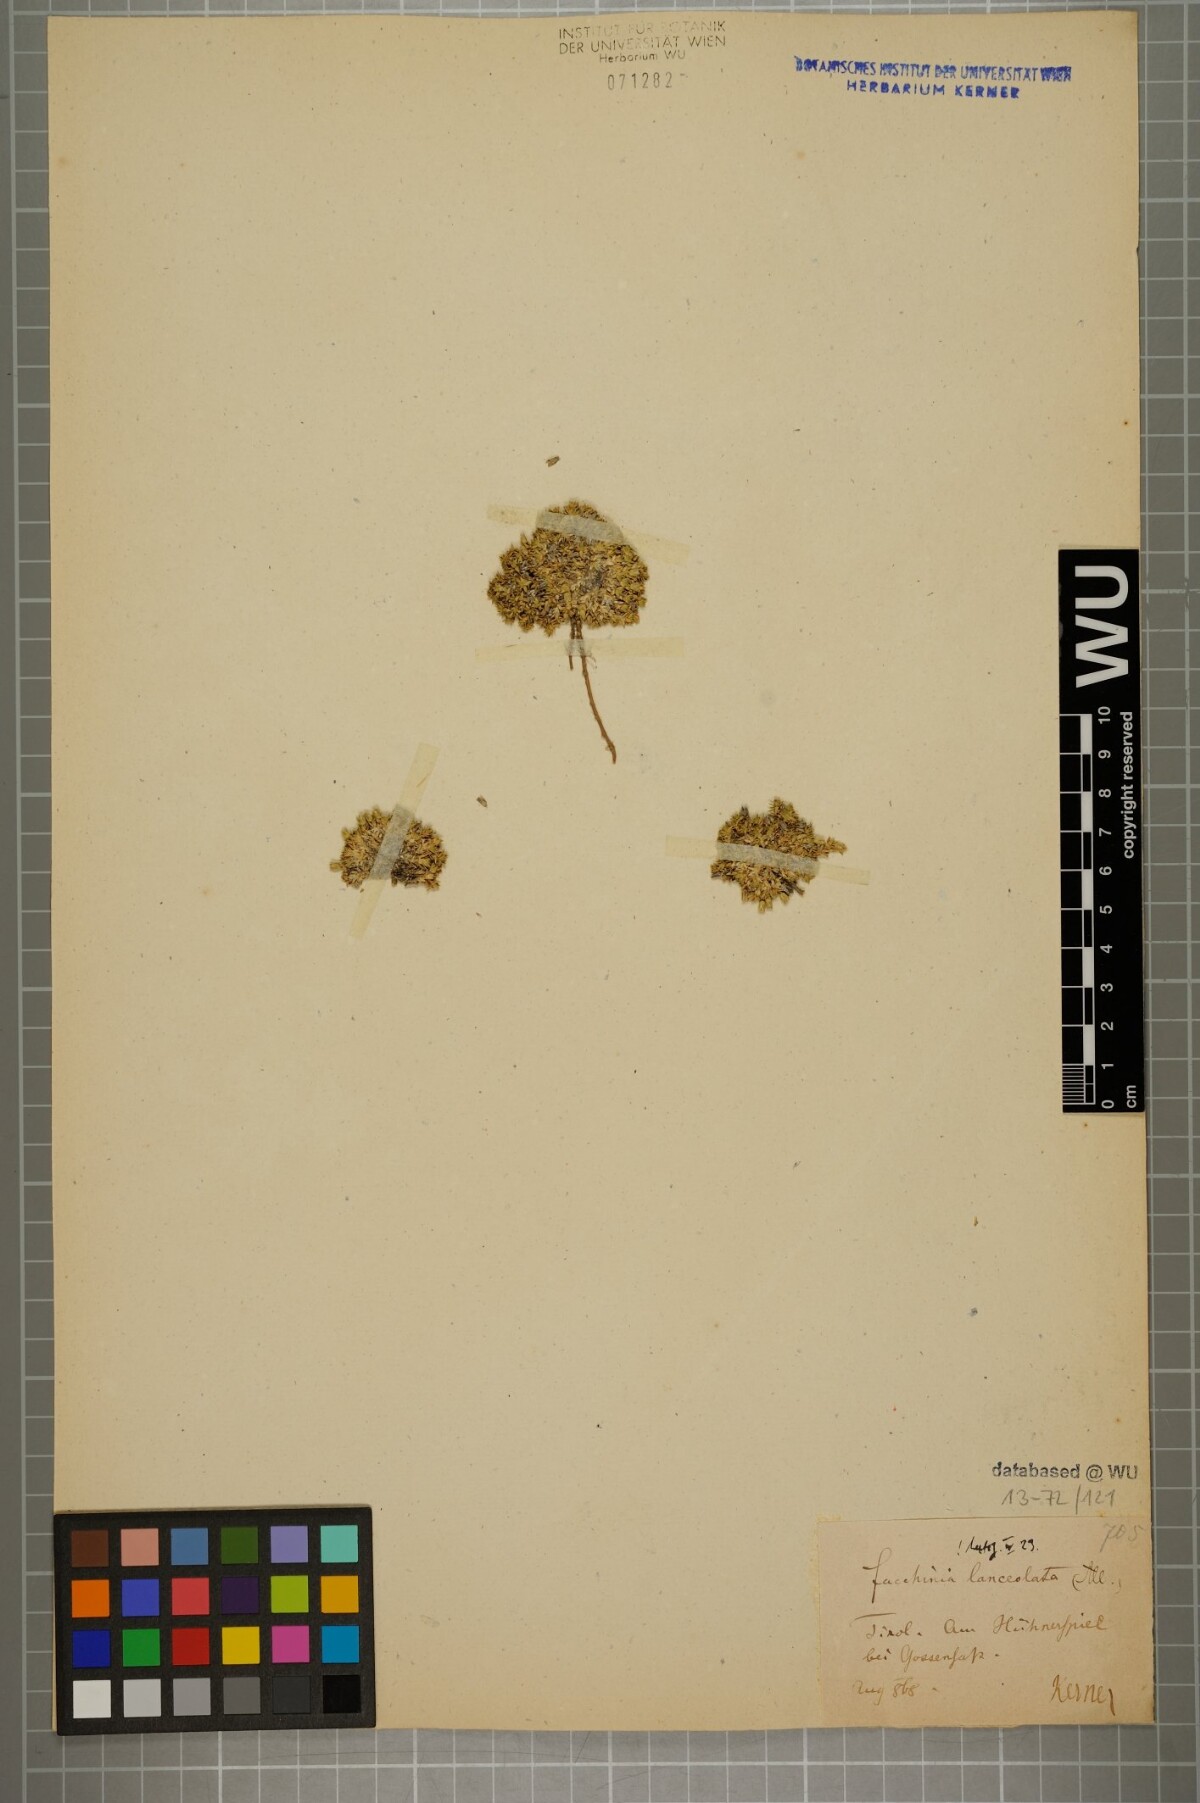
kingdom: Plantae
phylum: Tracheophyta
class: Magnoliopsida
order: Caryophyllales
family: Caryophyllaceae
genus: Facchinia
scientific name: Facchinia rupestris
